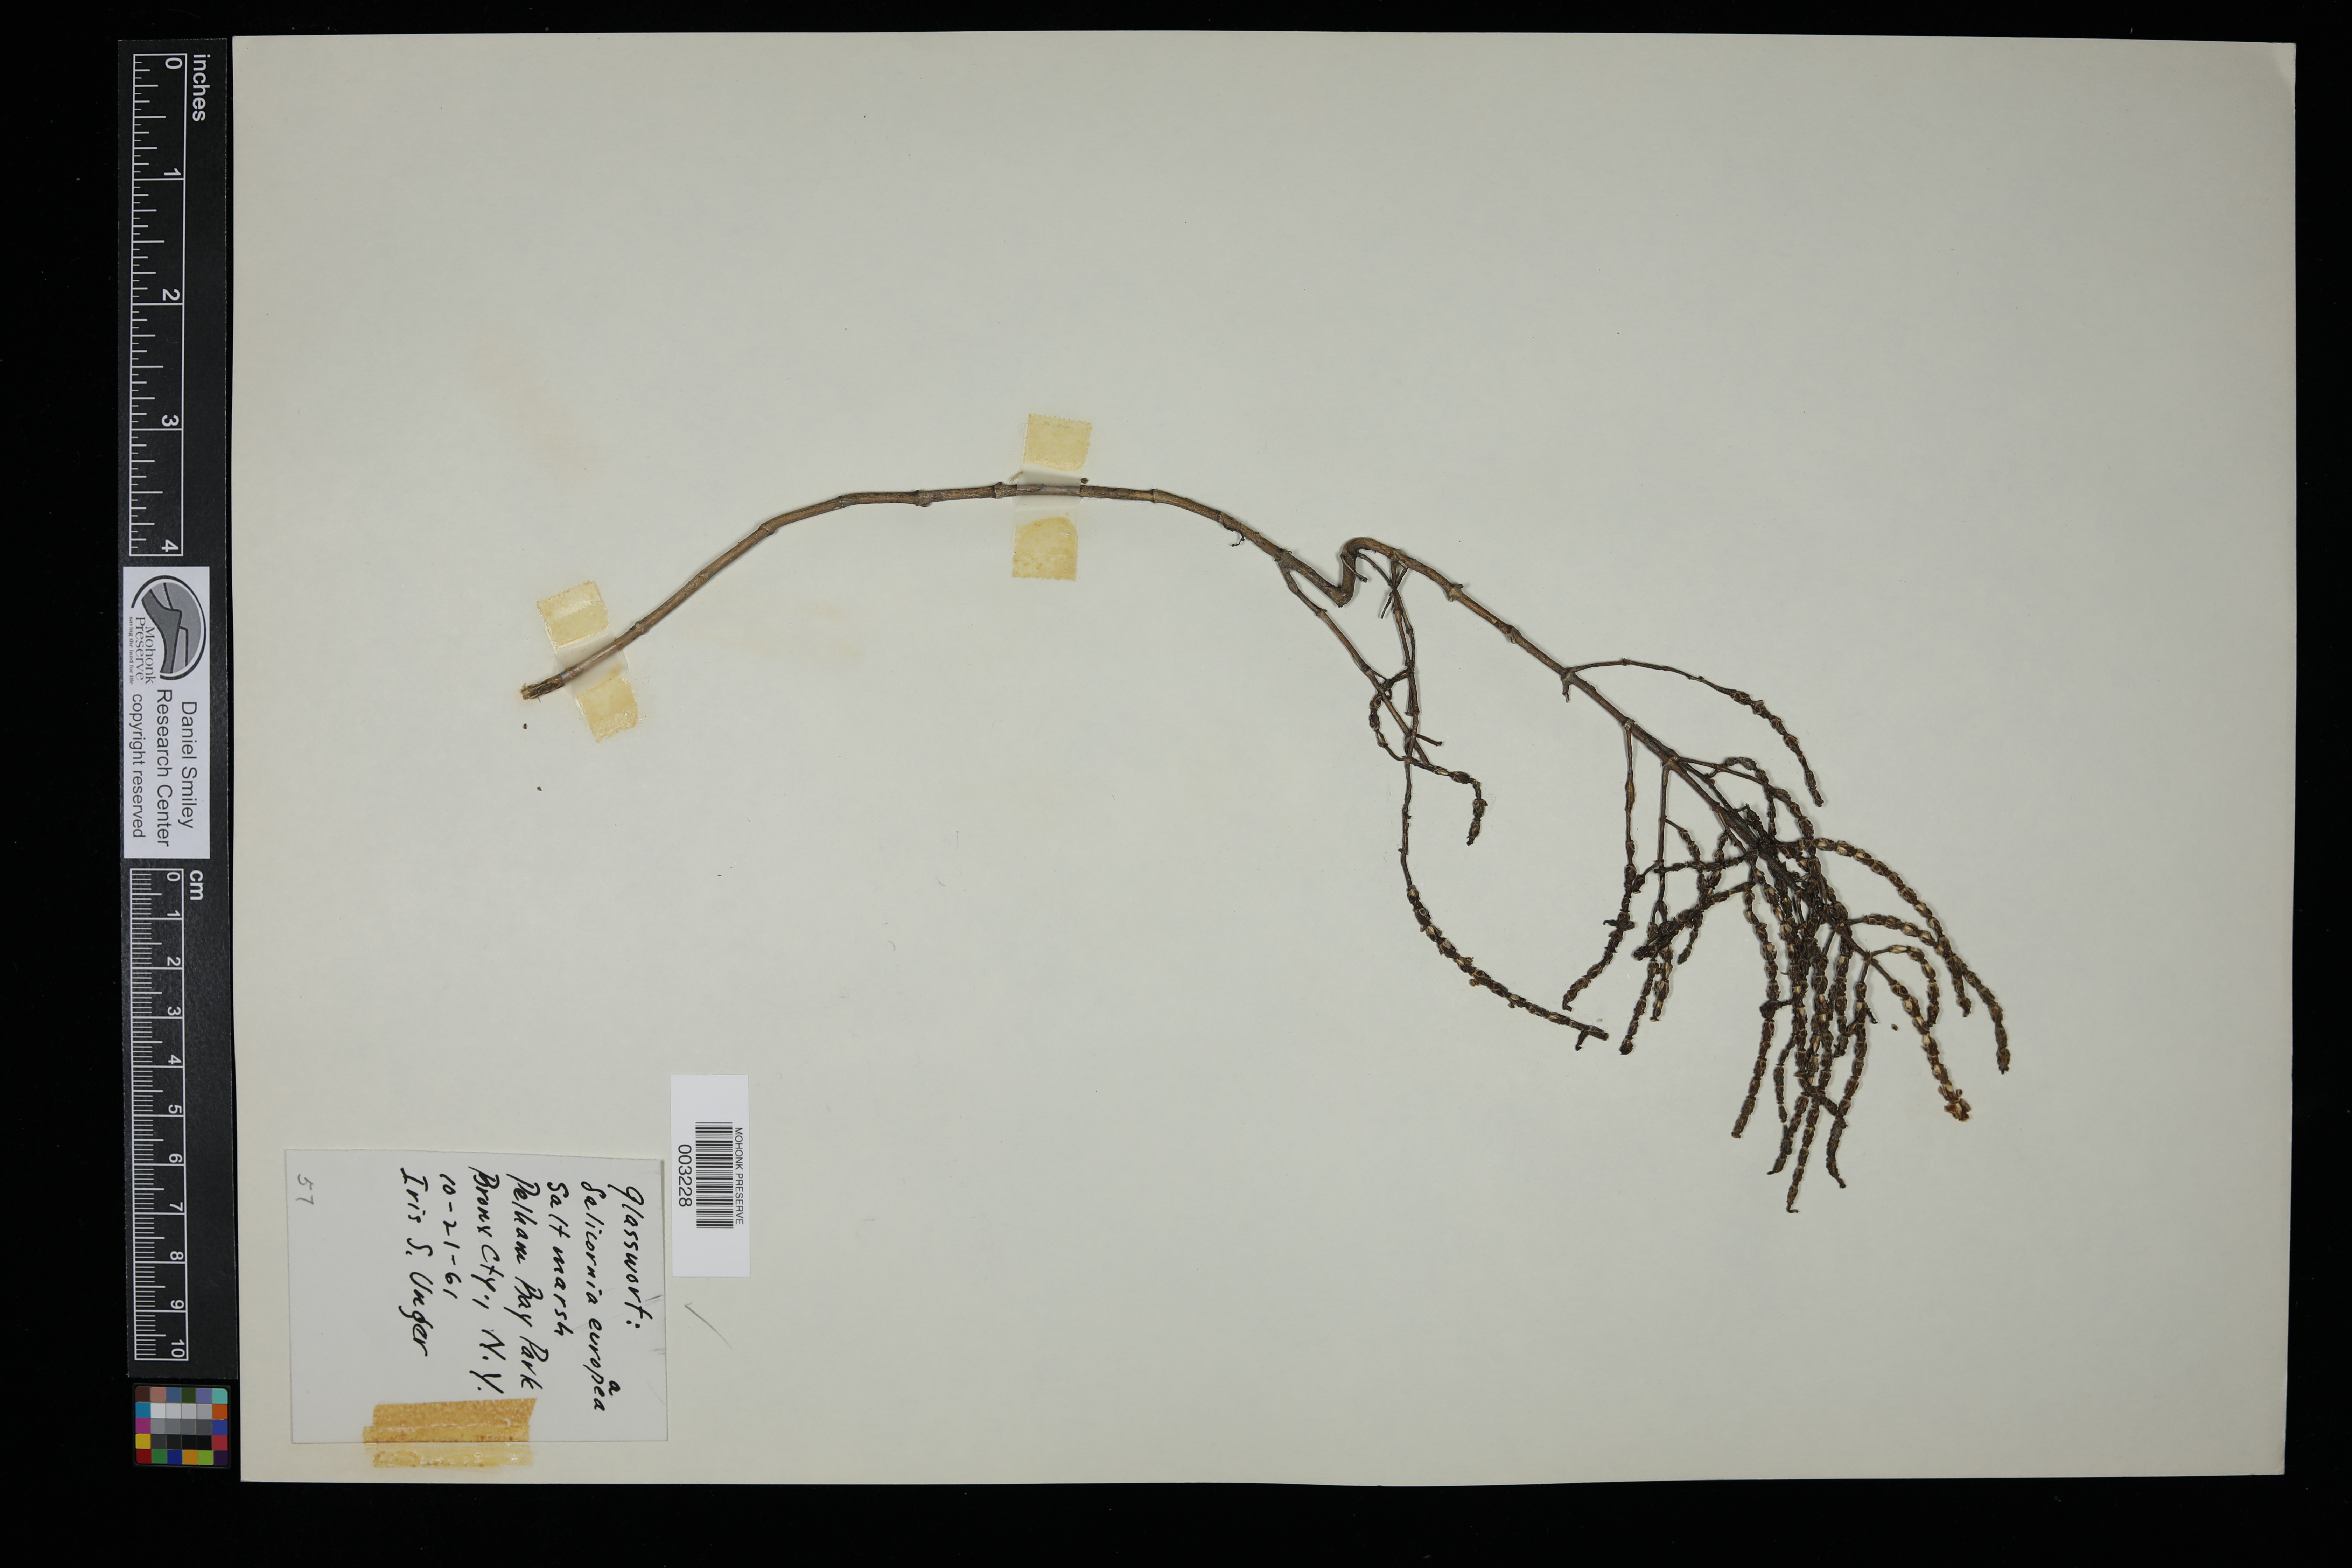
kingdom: Plantae
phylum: Tracheophyta
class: Magnoliopsida
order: Rosales
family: Rosaceae
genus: Cydonia
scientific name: Cydonia oblonga
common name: Quince
